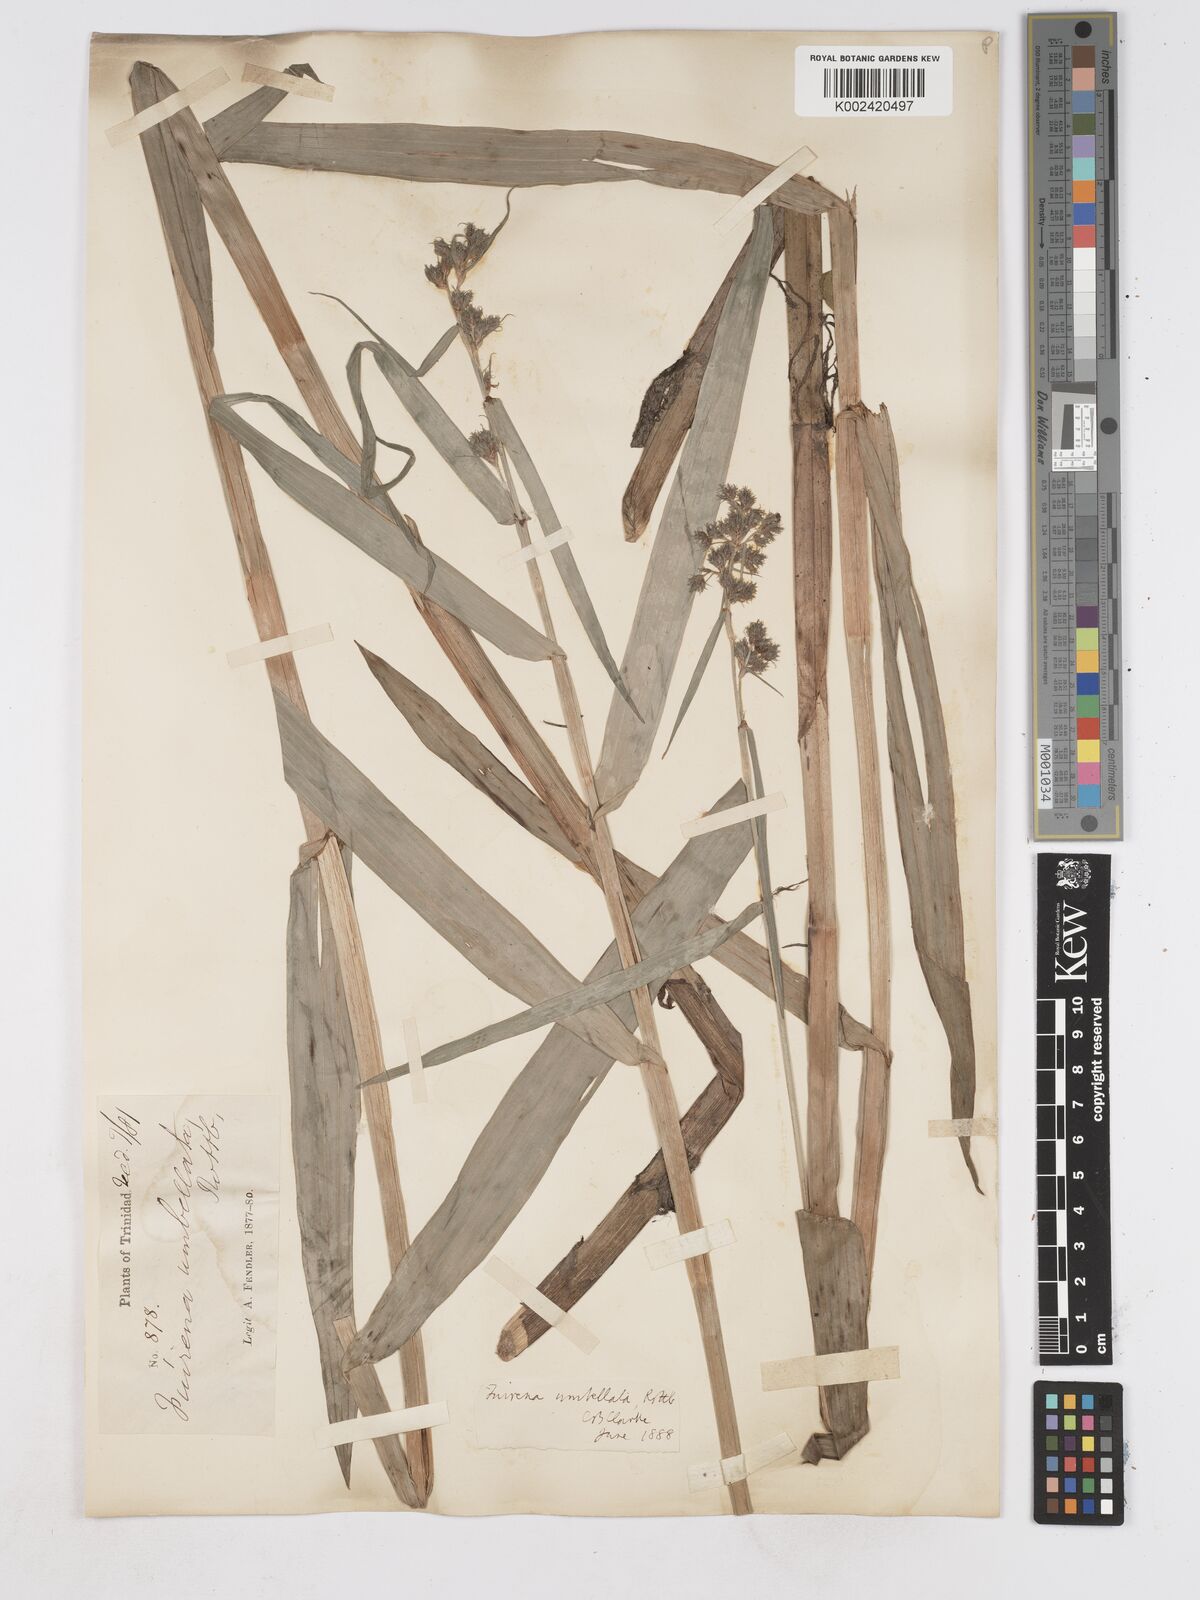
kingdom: Plantae
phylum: Tracheophyta
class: Liliopsida
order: Poales
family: Cyperaceae
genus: Fuirena
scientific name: Fuirena umbellata
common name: Yefen
